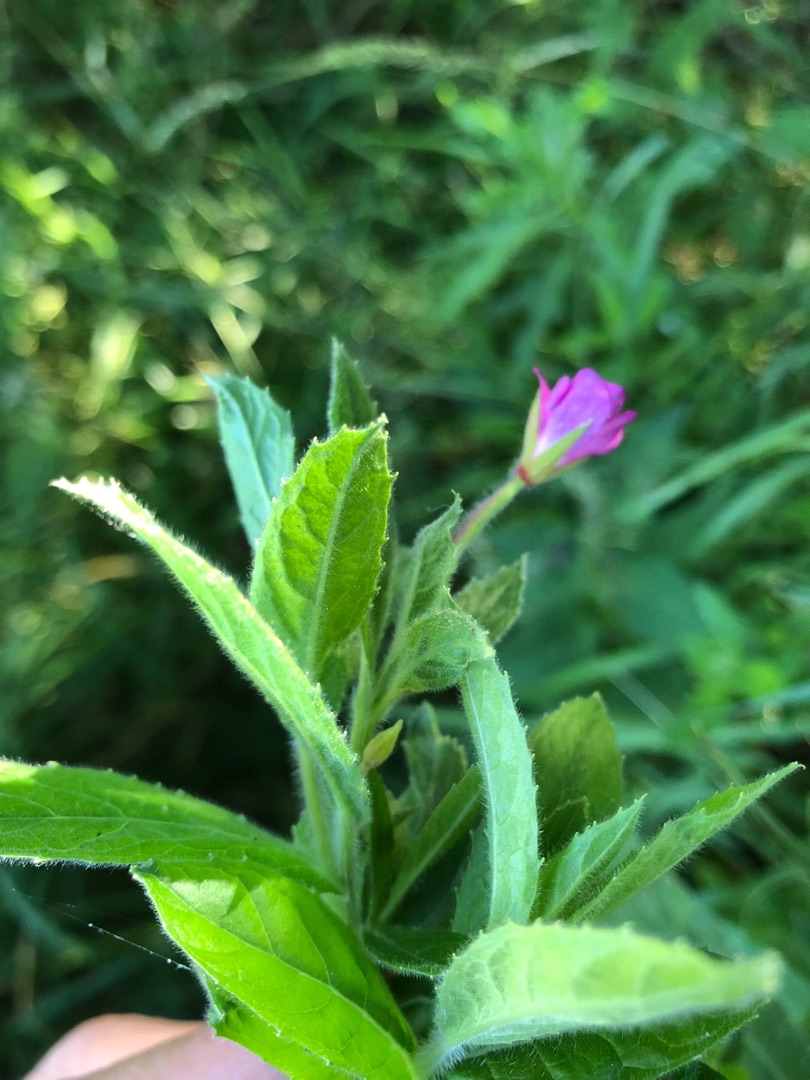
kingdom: Plantae
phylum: Tracheophyta
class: Magnoliopsida
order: Myrtales
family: Onagraceae
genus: Epilobium
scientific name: Epilobium hirsutum
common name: Lådden dueurt
